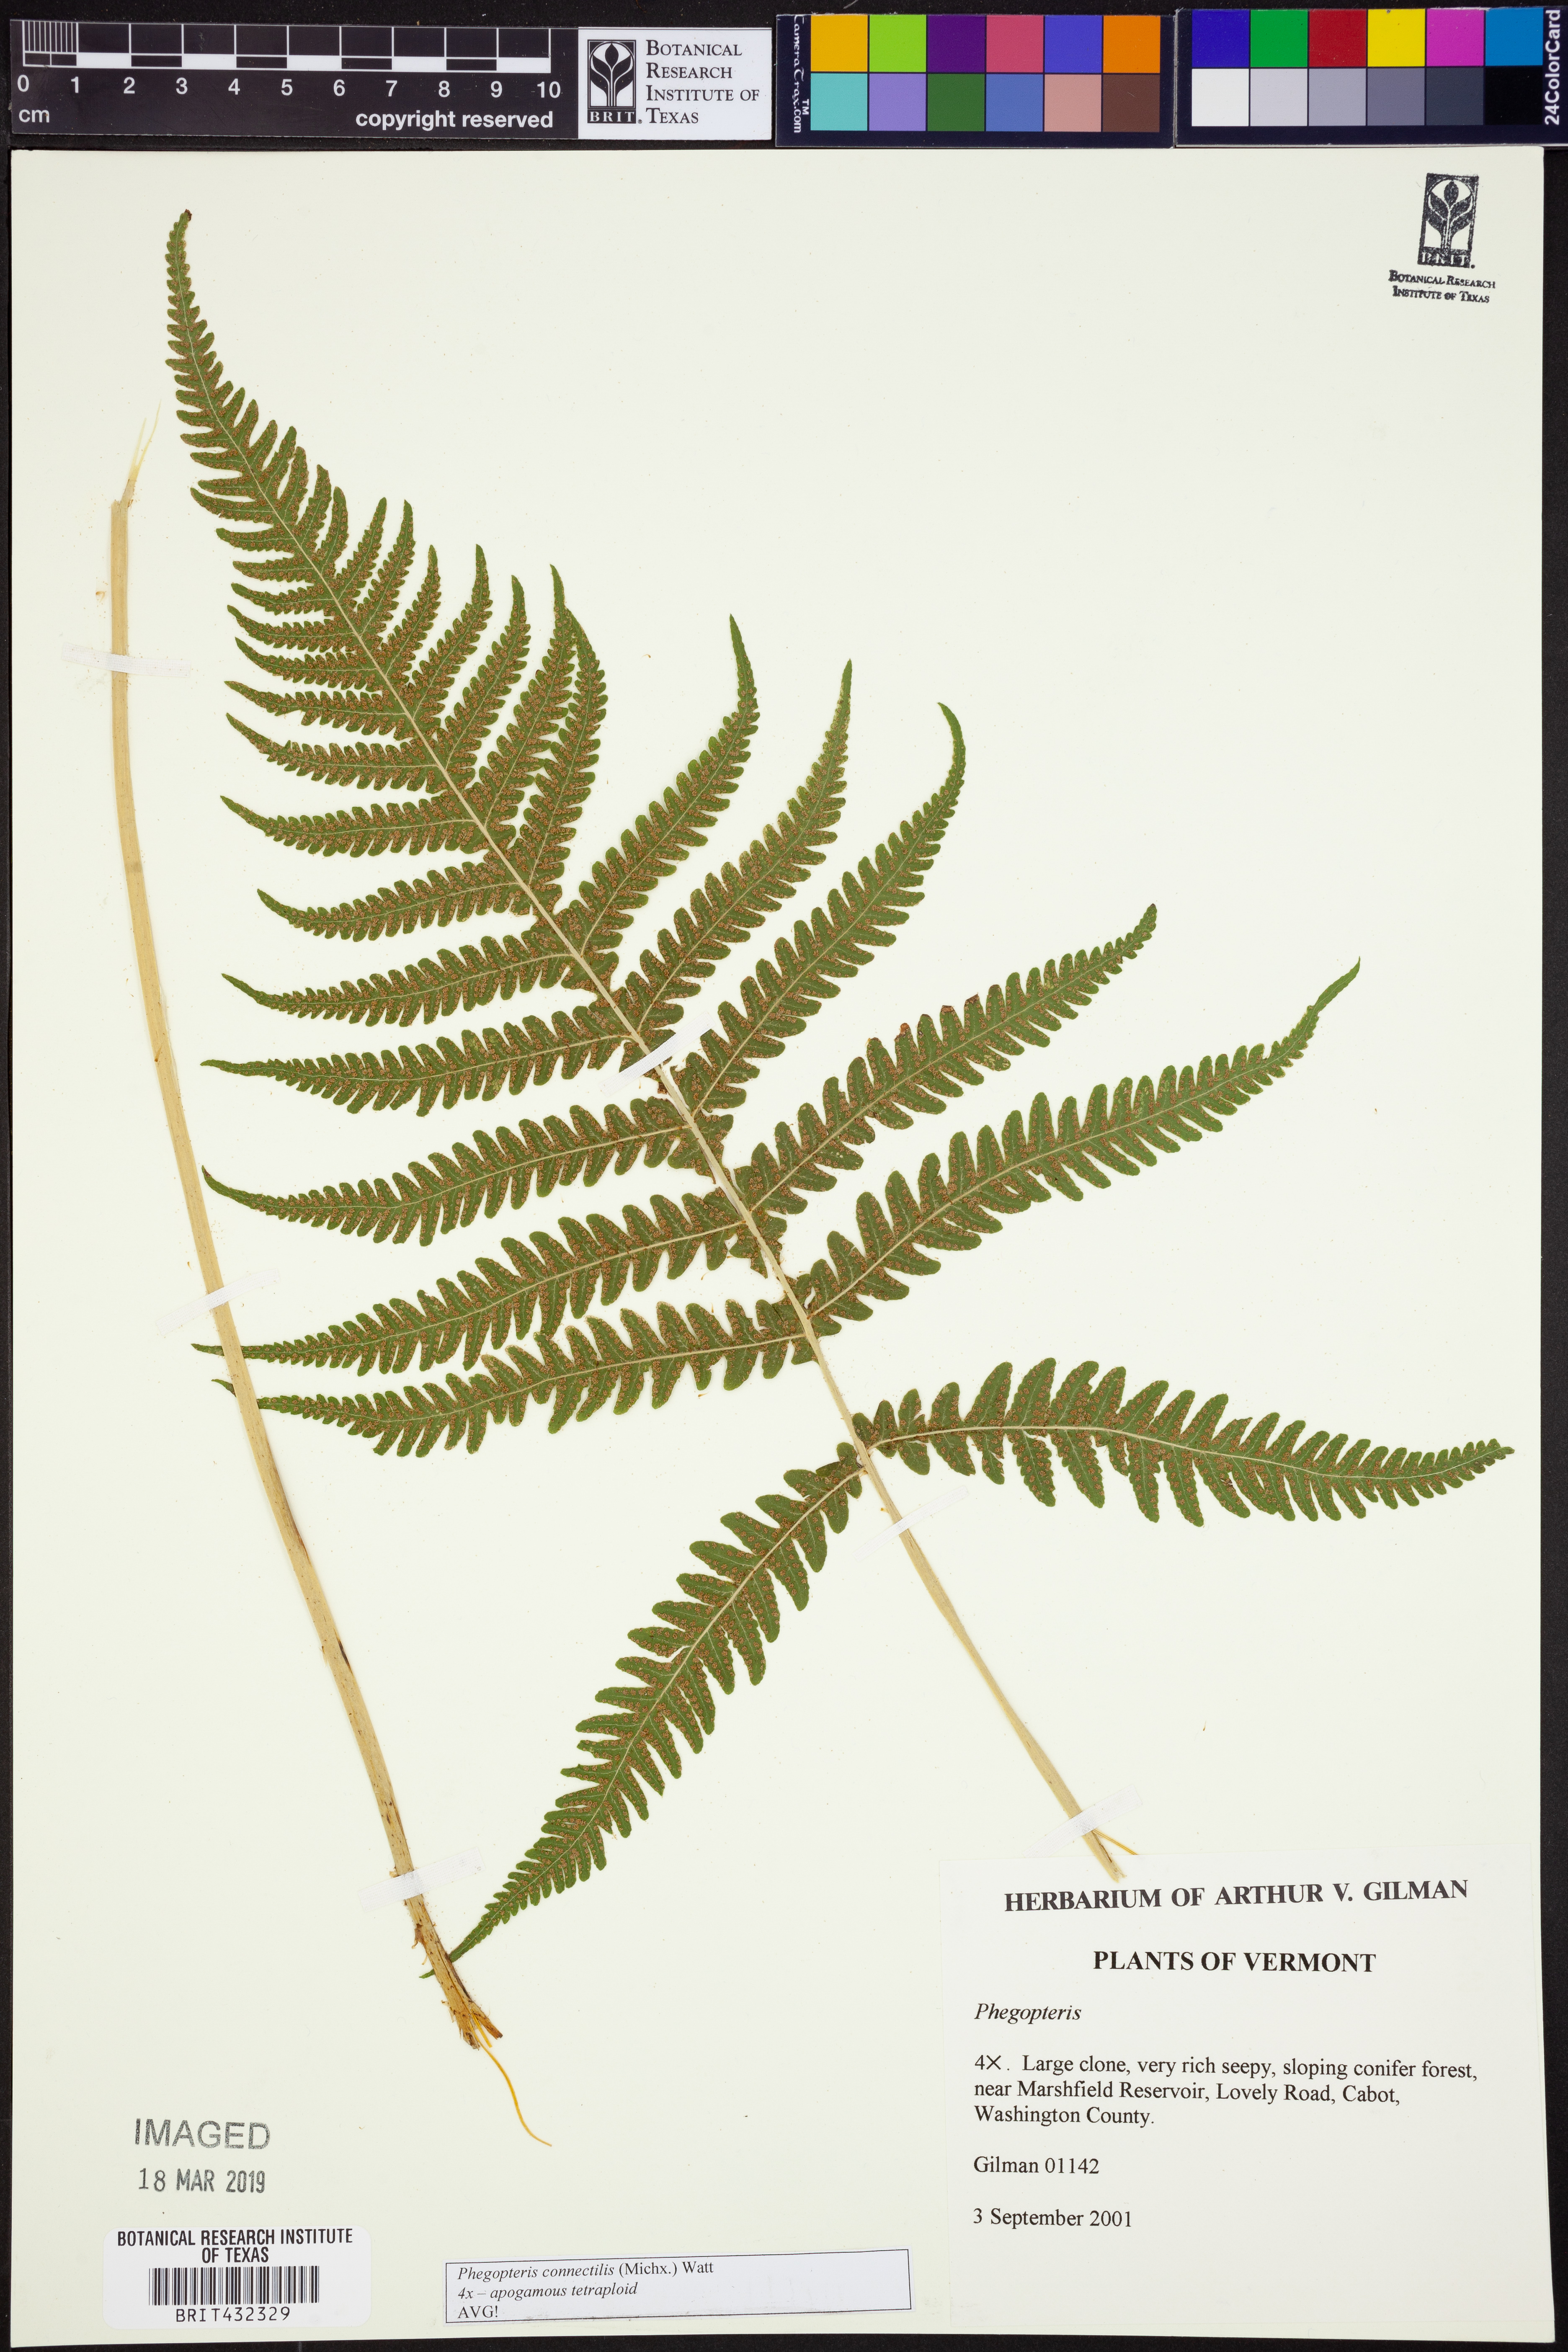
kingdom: Plantae
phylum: Tracheophyta
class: Polypodiopsida
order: Polypodiales
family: Thelypteridaceae
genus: Phegopteris
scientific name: Phegopteris connectilis
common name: Beech fern
